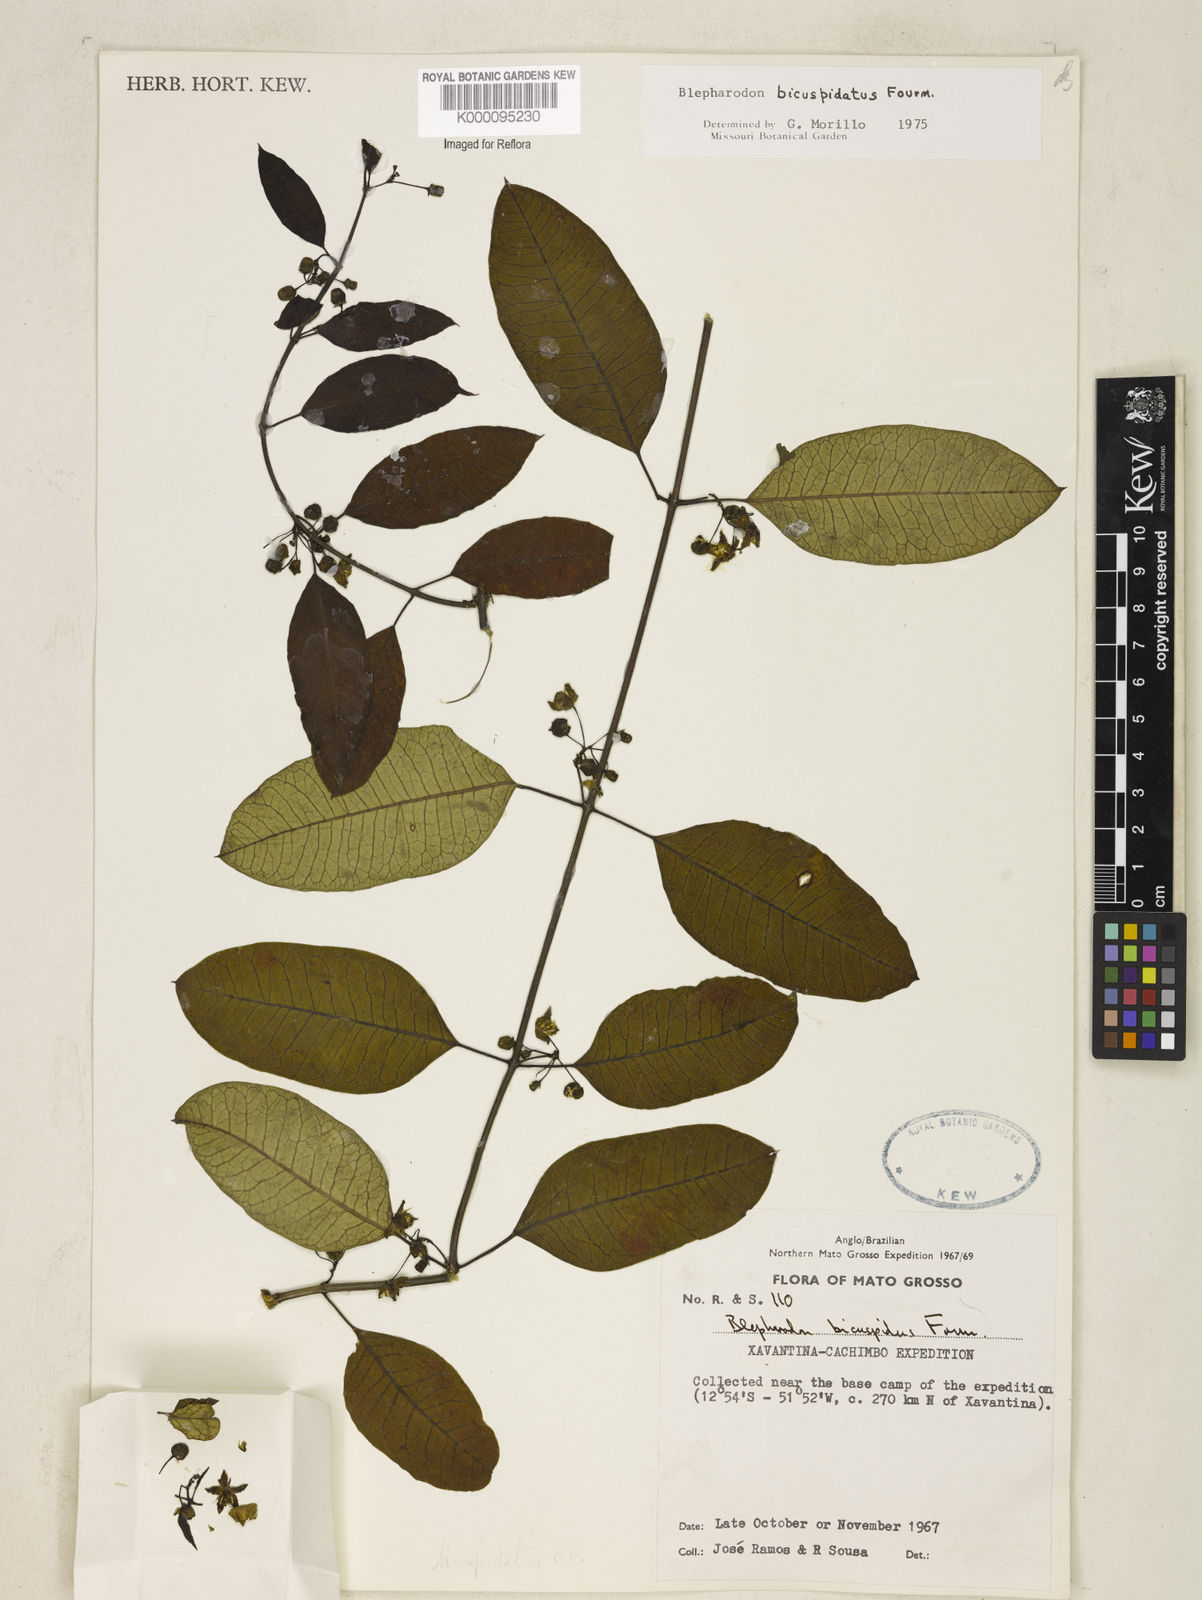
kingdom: Plantae
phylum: Tracheophyta
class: Magnoliopsida
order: Gentianales
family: Apocynaceae
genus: Blepharodon
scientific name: Blepharodon bicuspidatum
